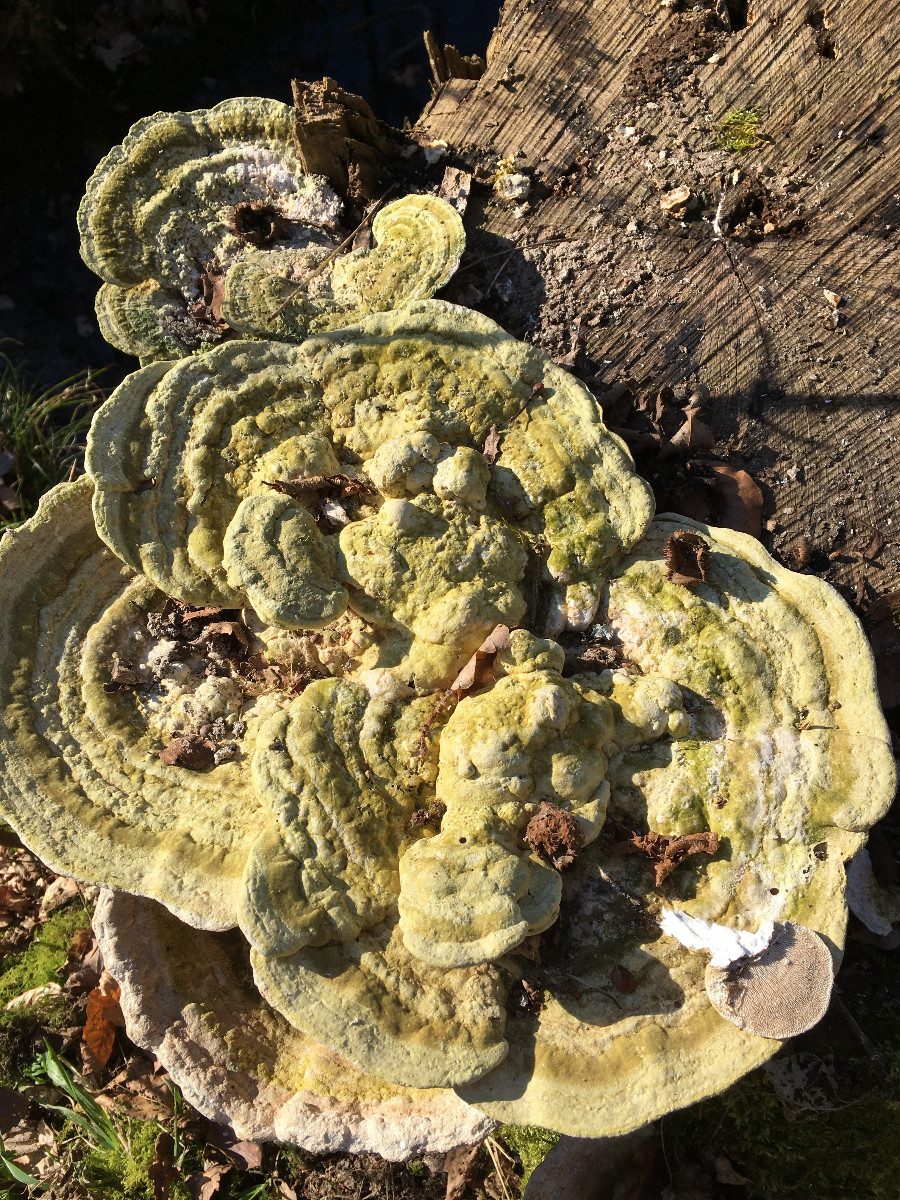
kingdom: Fungi
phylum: Basidiomycota
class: Agaricomycetes
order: Polyporales
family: Polyporaceae
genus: Trametes
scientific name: Trametes gibbosa
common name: puklet læderporesvamp
